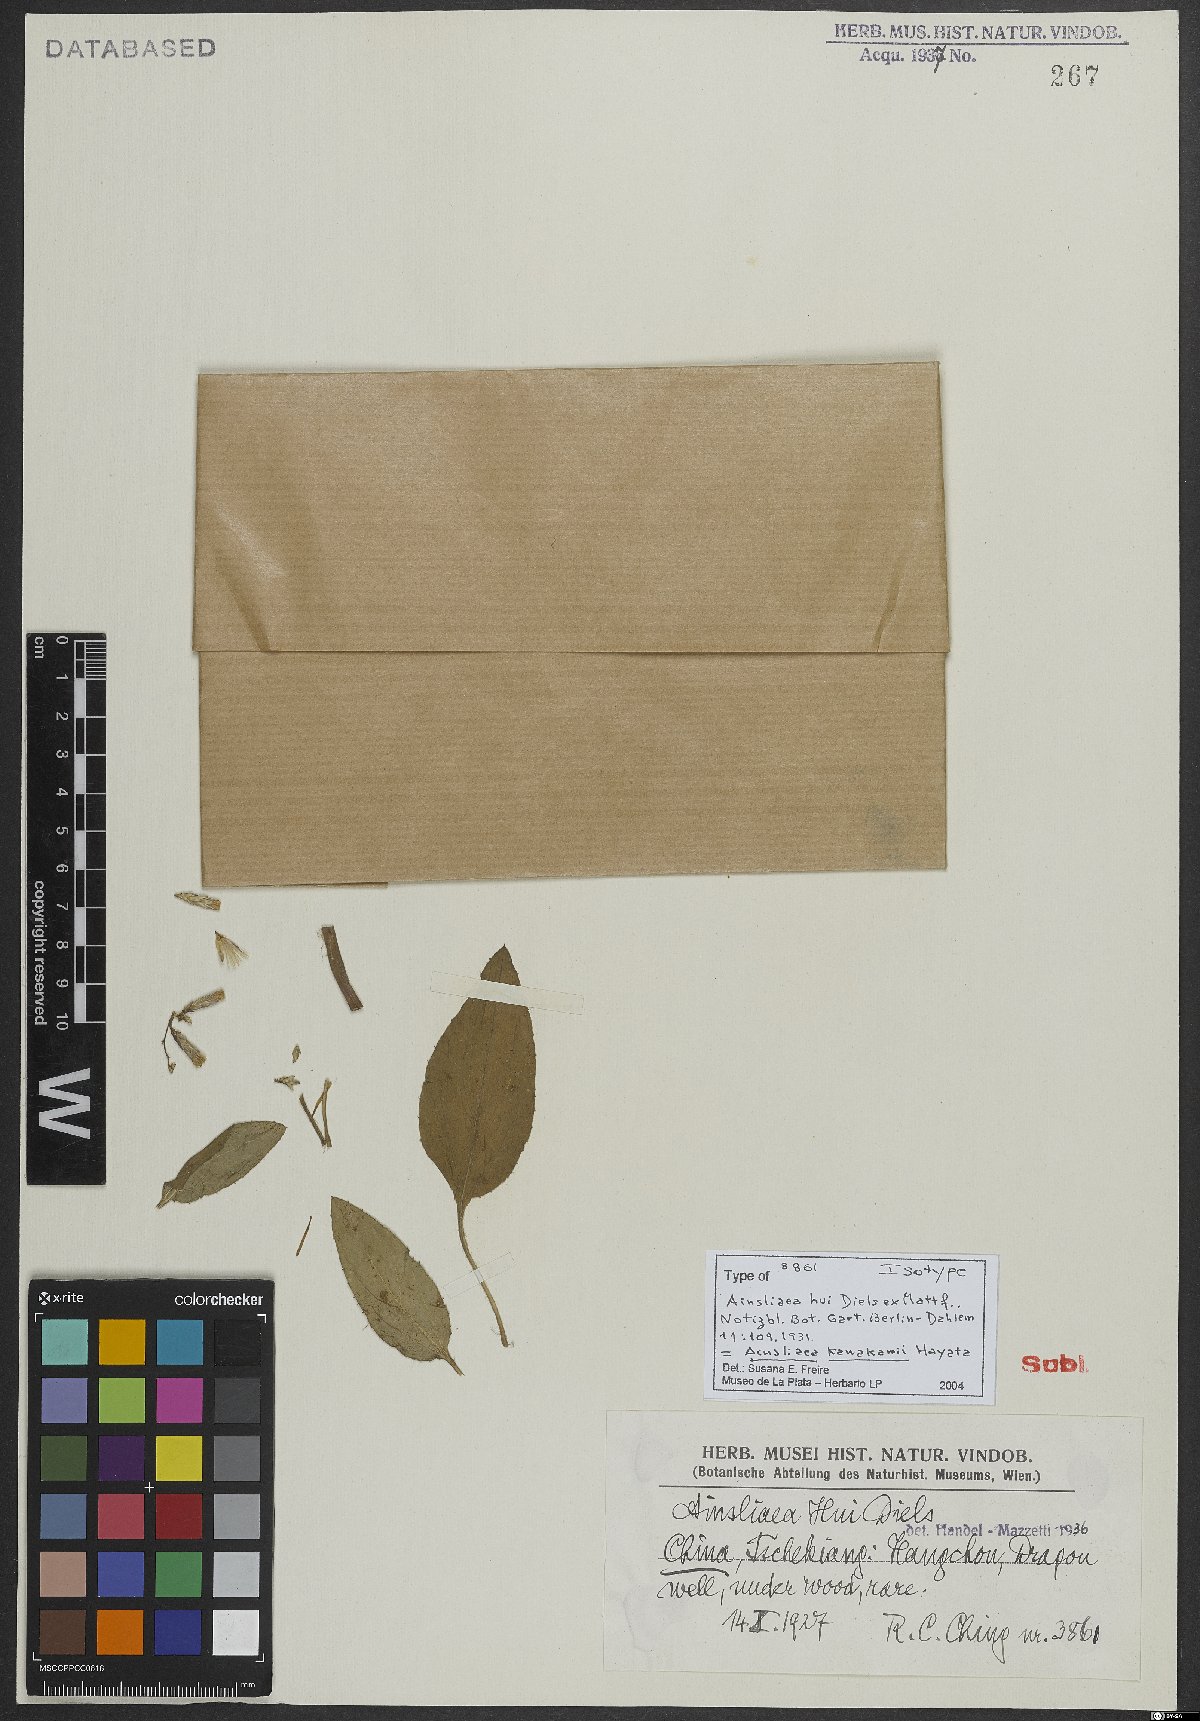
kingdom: Plantae
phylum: Tracheophyta
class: Magnoliopsida
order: Asterales
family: Asteraceae
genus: Ainsliaea
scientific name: Ainsliaea kawakamii
